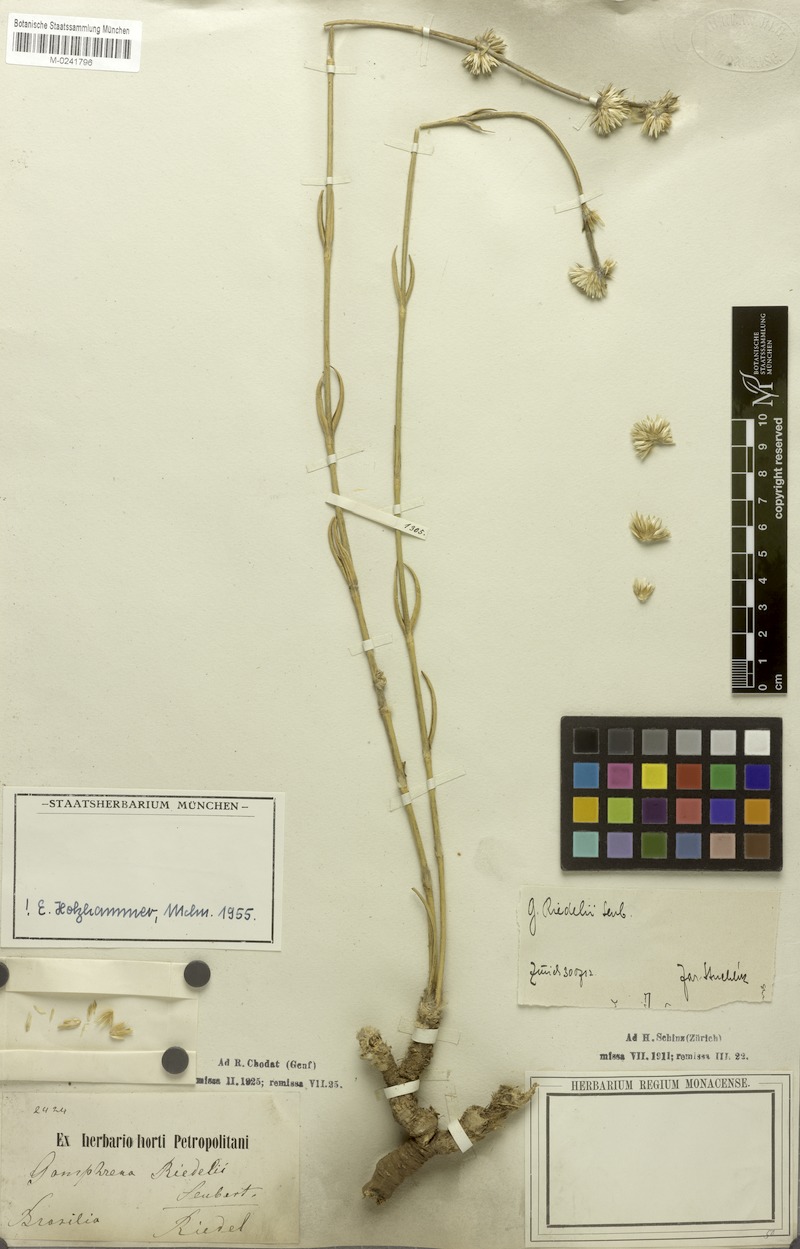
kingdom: Plantae
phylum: Tracheophyta
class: Magnoliopsida
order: Caryophyllales
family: Amaranthaceae
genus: Gomphrena
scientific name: Gomphrena riedelii
